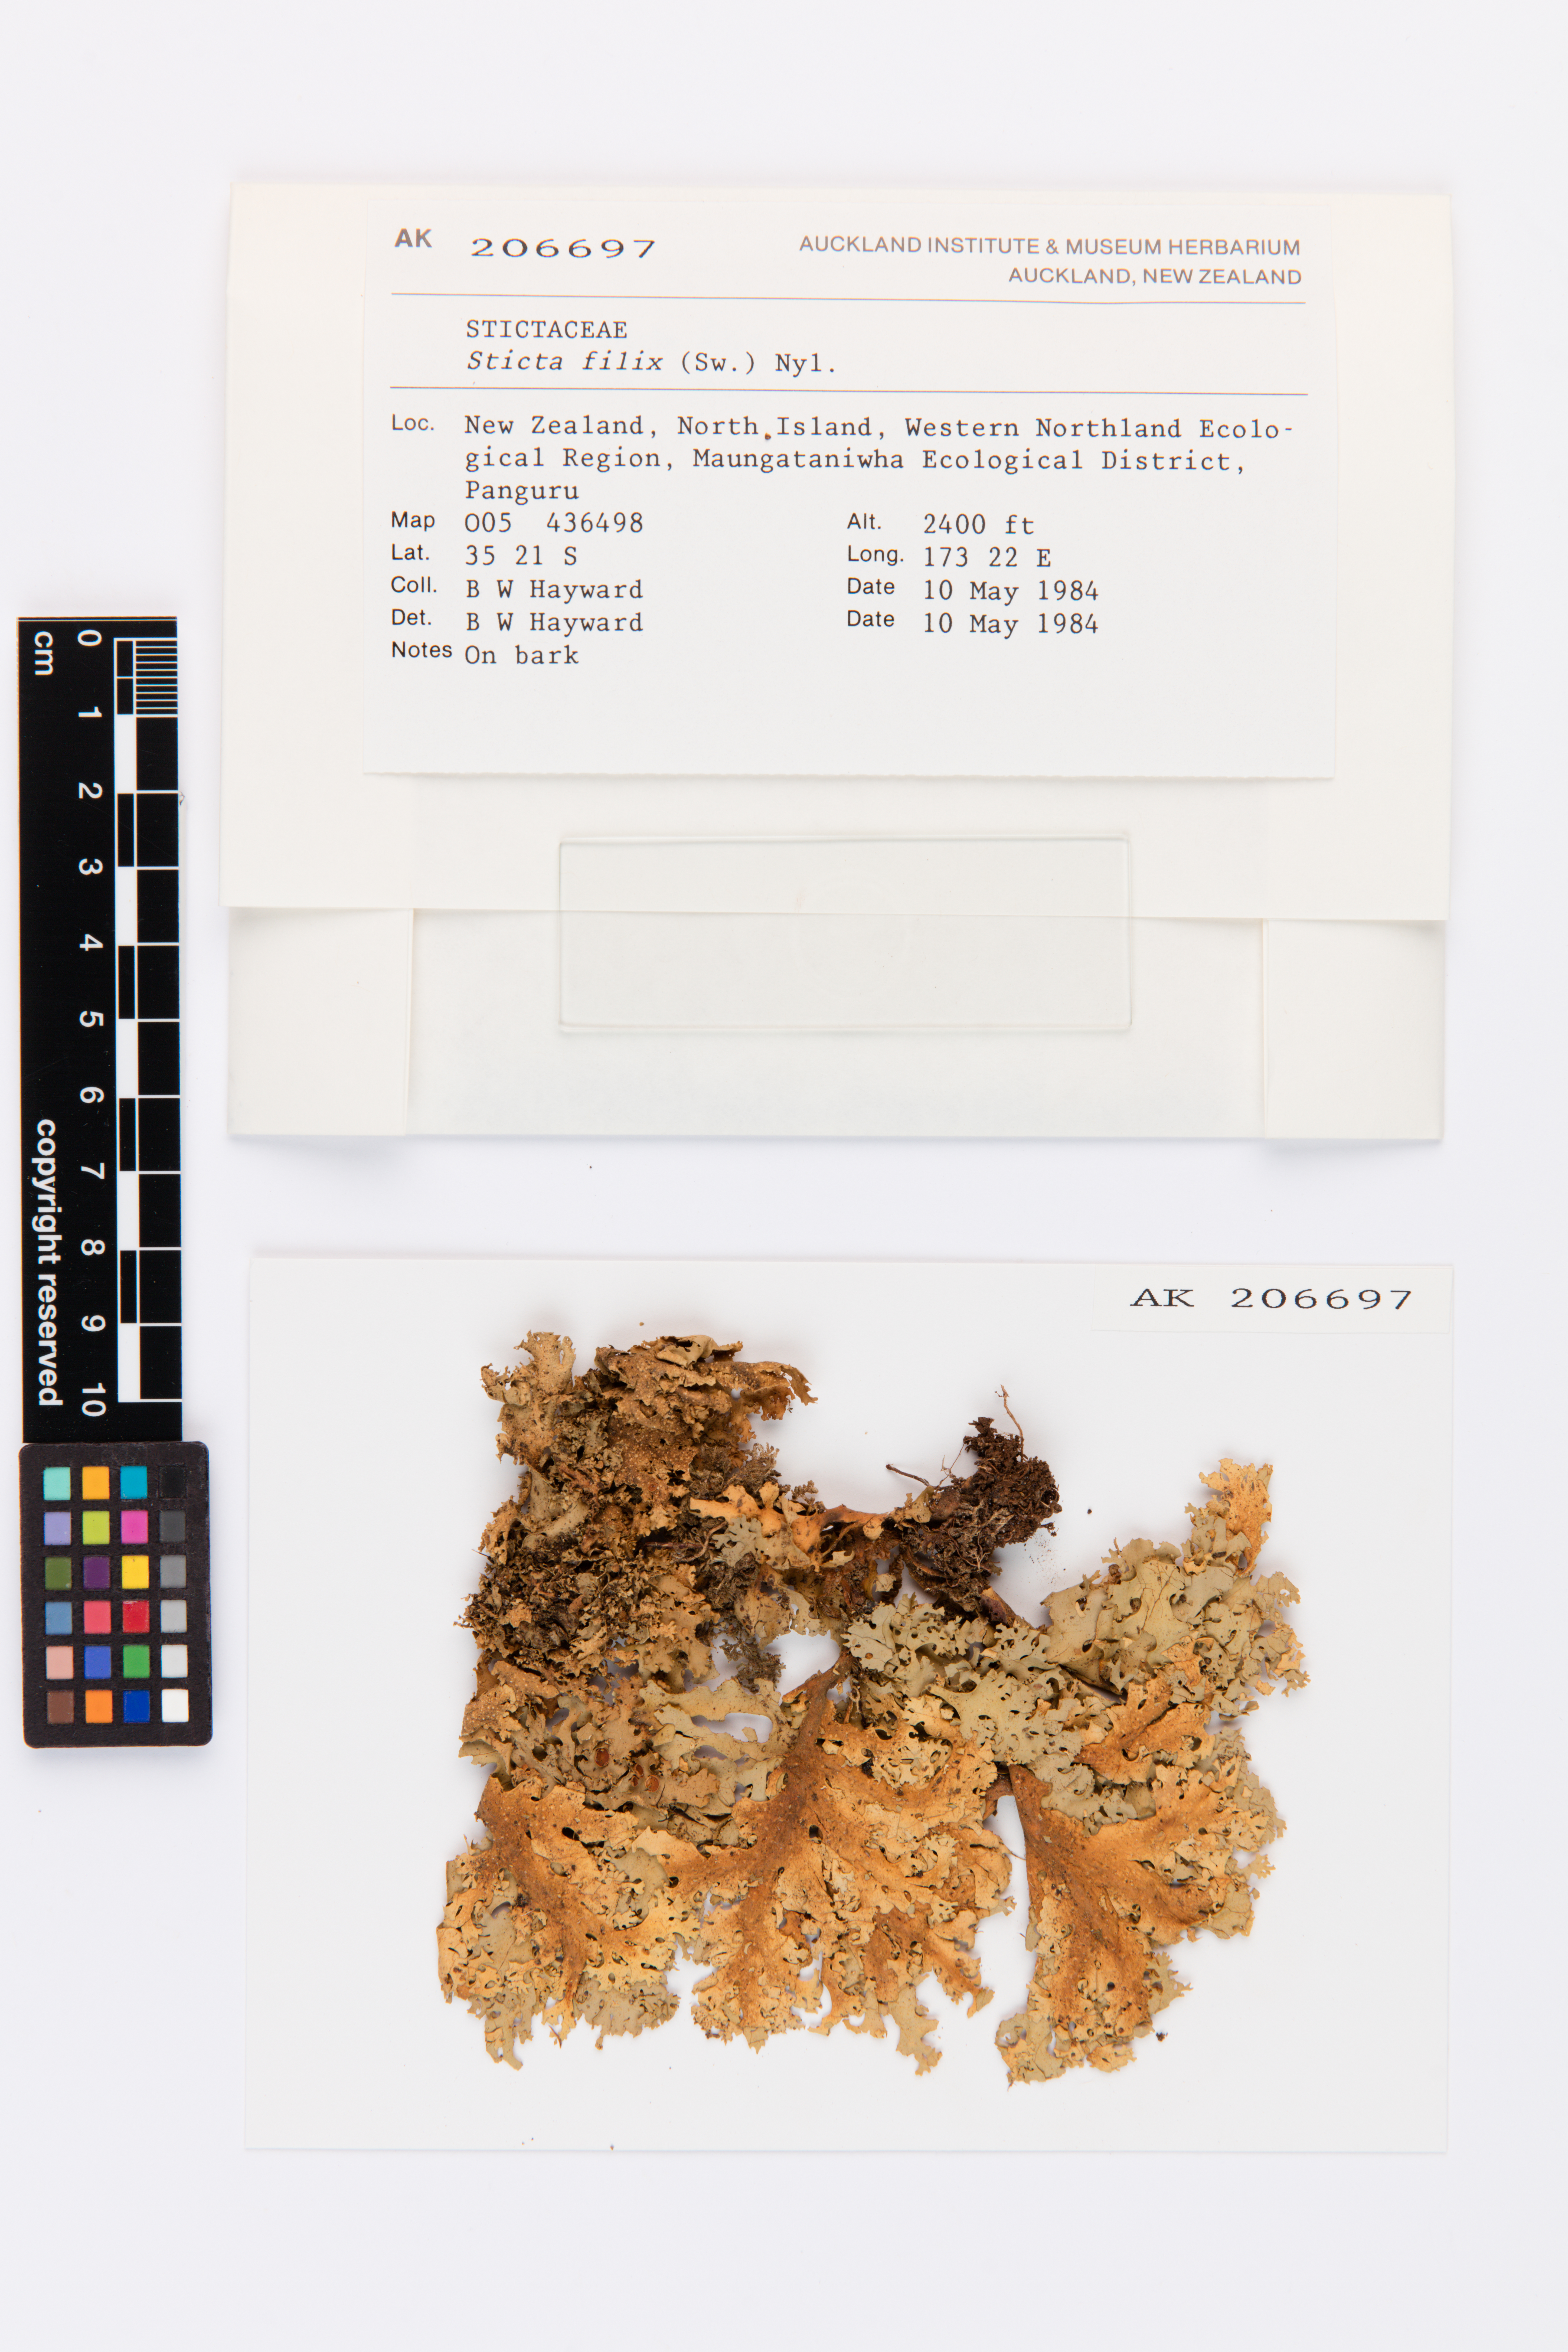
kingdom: Fungi
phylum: Ascomycota
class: Lecanoromycetes
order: Peltigerales
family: Lobariaceae
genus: Sticta
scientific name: Sticta filix
